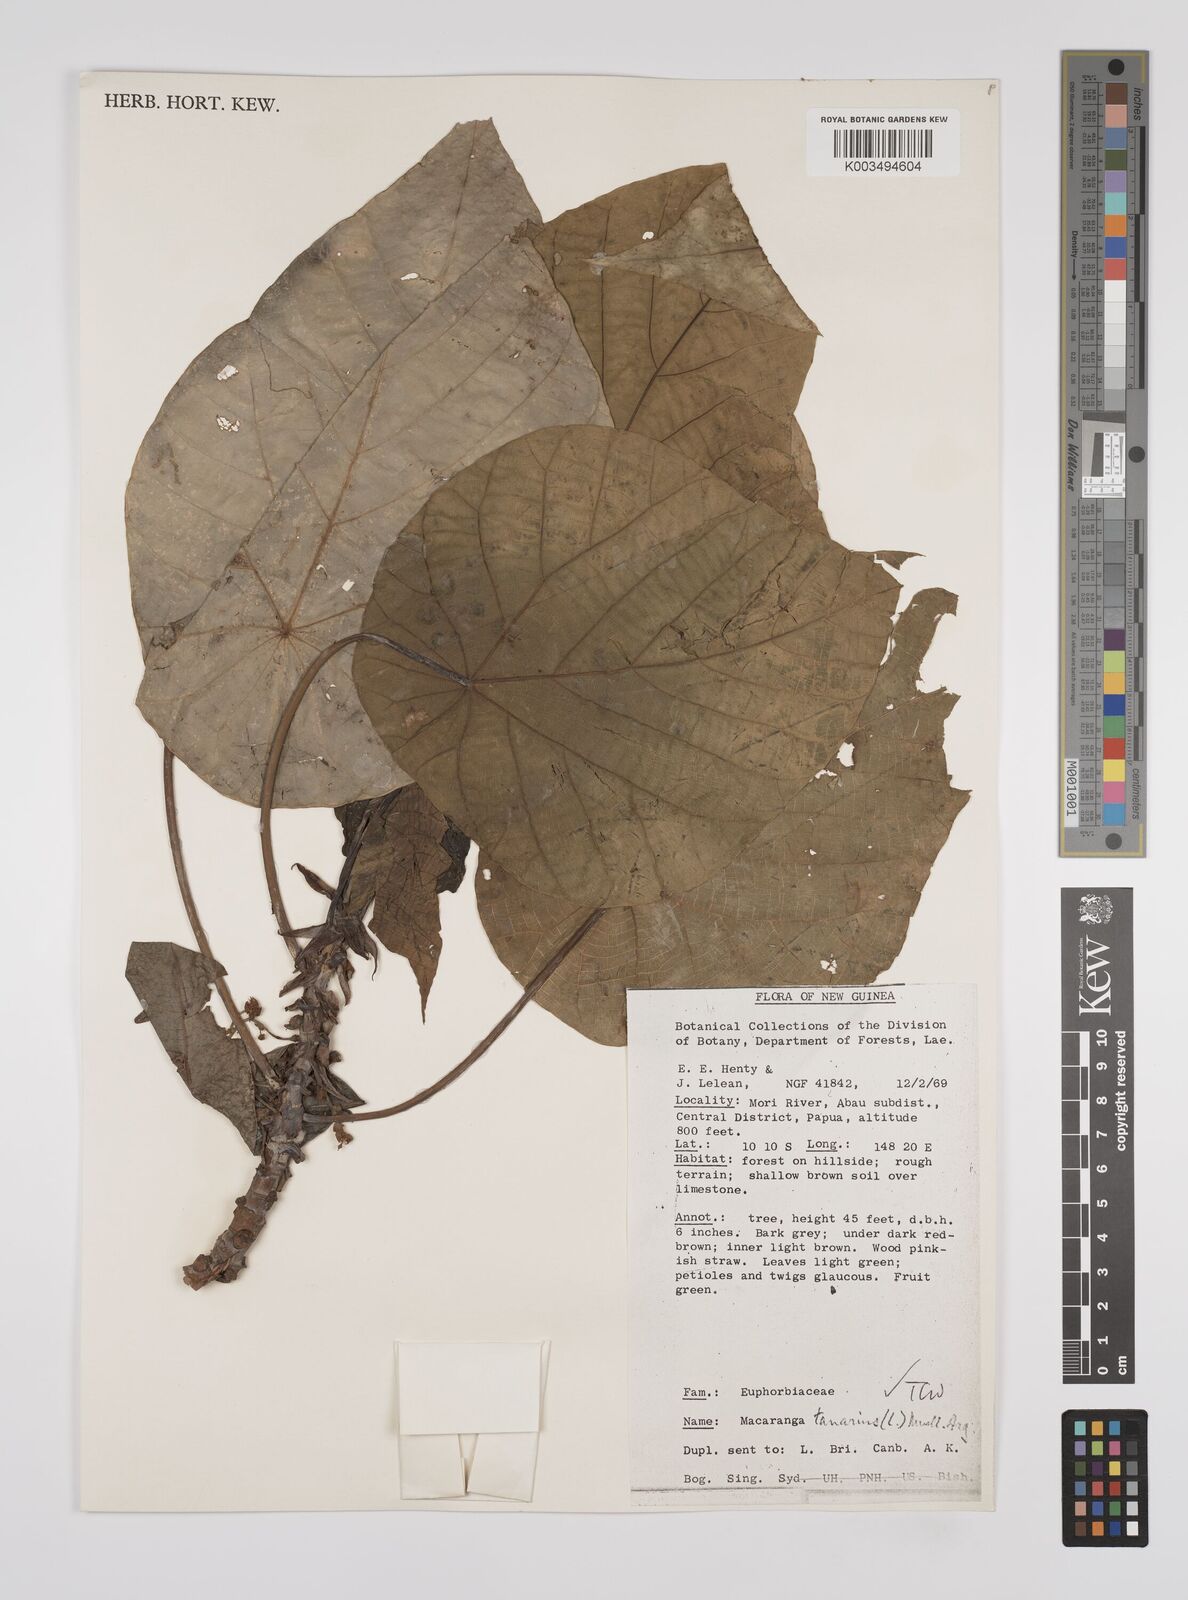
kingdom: Plantae
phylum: Tracheophyta
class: Magnoliopsida
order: Malpighiales
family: Euphorbiaceae
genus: Macaranga
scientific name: Macaranga tanarius
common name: Parasol leaf tree
